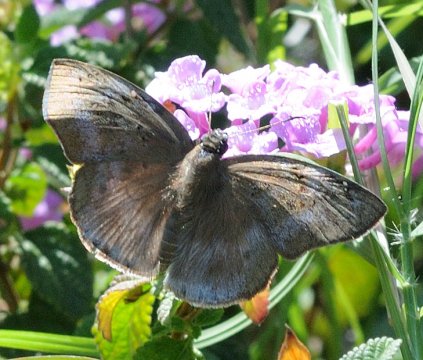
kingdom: Animalia
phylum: Arthropoda
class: Insecta
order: Lepidoptera
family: Hesperiidae
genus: Tagiades
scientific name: Tagiades flesus
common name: Clouded Flat
